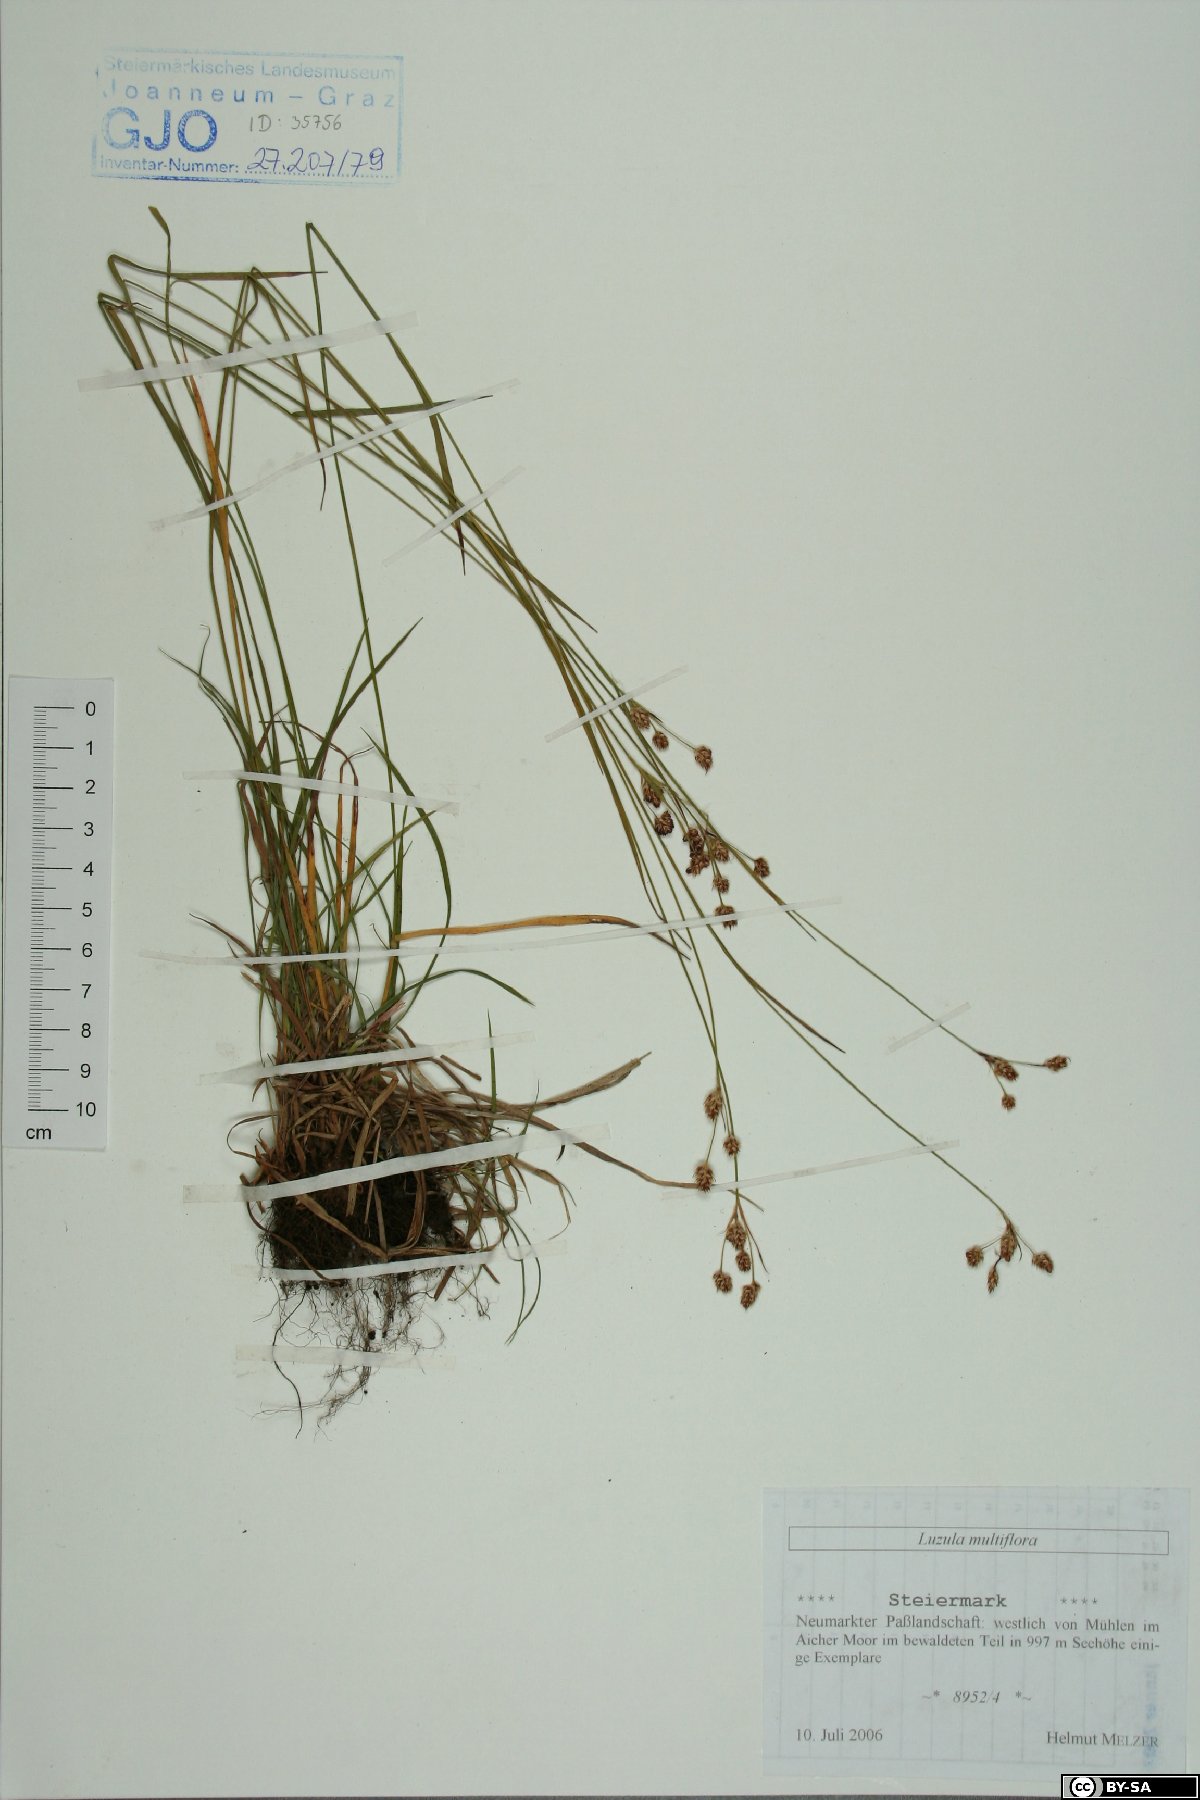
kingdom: Plantae
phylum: Tracheophyta
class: Liliopsida
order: Poales
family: Juncaceae
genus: Luzula
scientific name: Luzula multiflora
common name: Heath wood-rush
